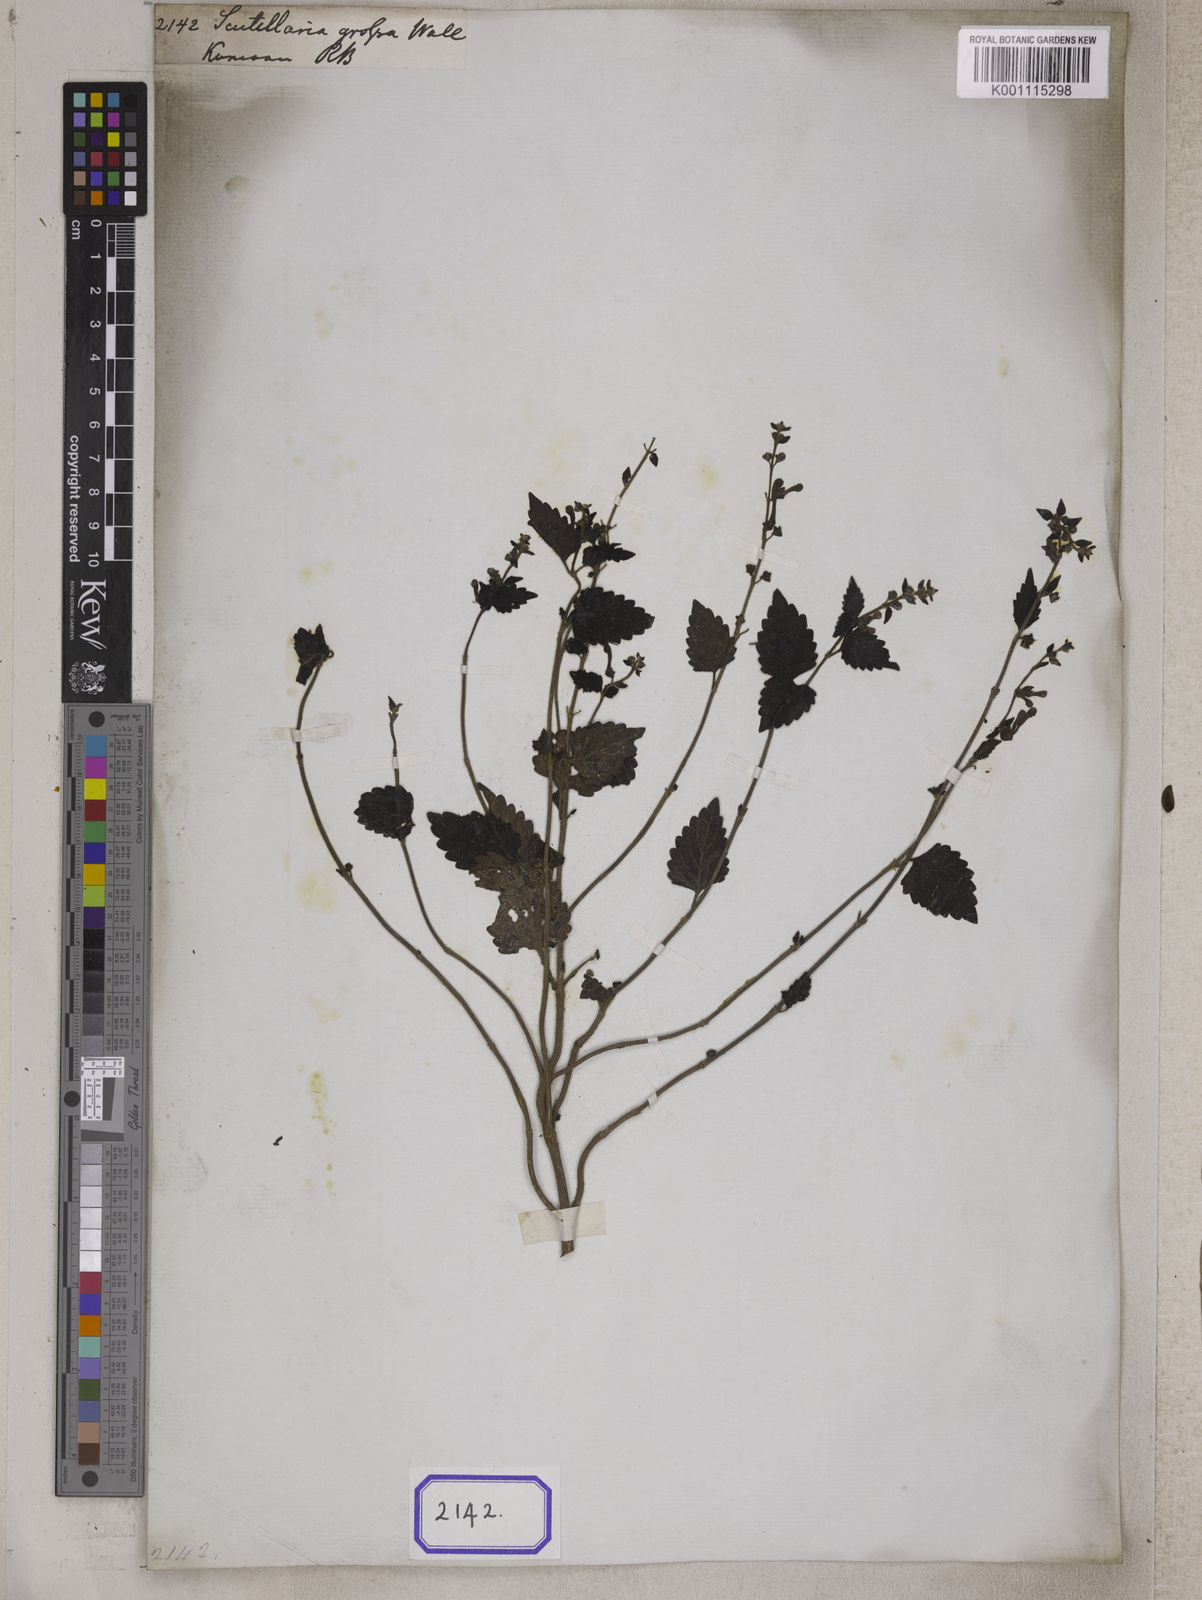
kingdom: Plantae
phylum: Tracheophyta
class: Magnoliopsida
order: Lamiales
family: Lamiaceae
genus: Scutellaria
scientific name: Scutellaria grossa
